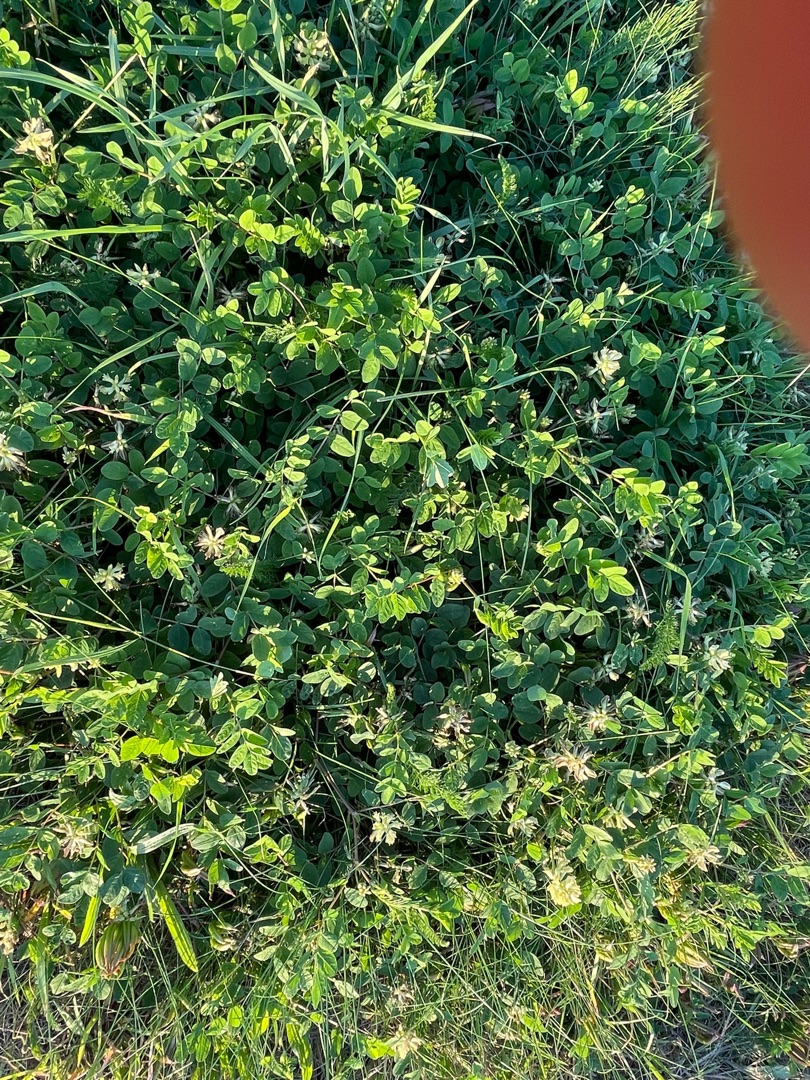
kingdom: Plantae
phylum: Tracheophyta
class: Magnoliopsida
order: Fabales
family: Fabaceae
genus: Astragalus
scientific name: Astragalus glycyphyllos
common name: Sød astragel
